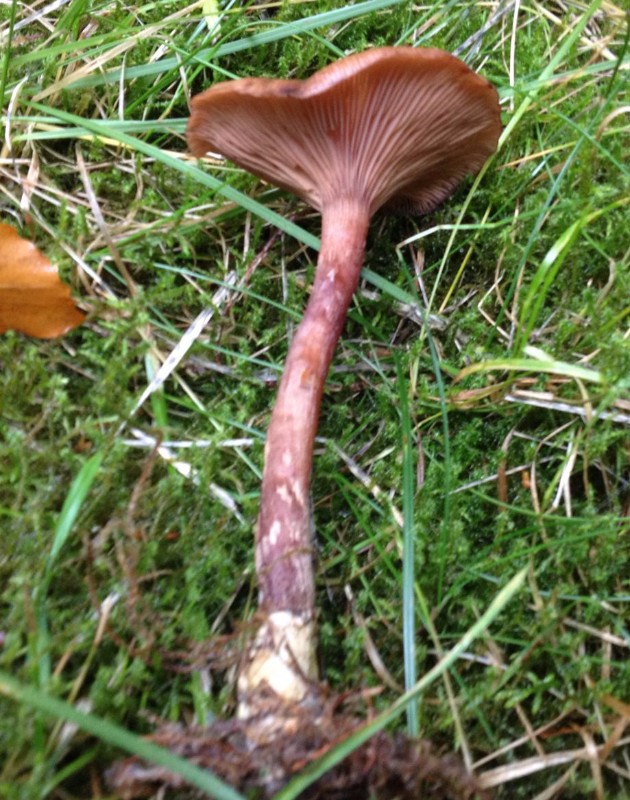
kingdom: Fungi
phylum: Basidiomycota
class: Agaricomycetes
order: Agaricales
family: Physalacriaceae
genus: Armillaria
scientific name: Armillaria
